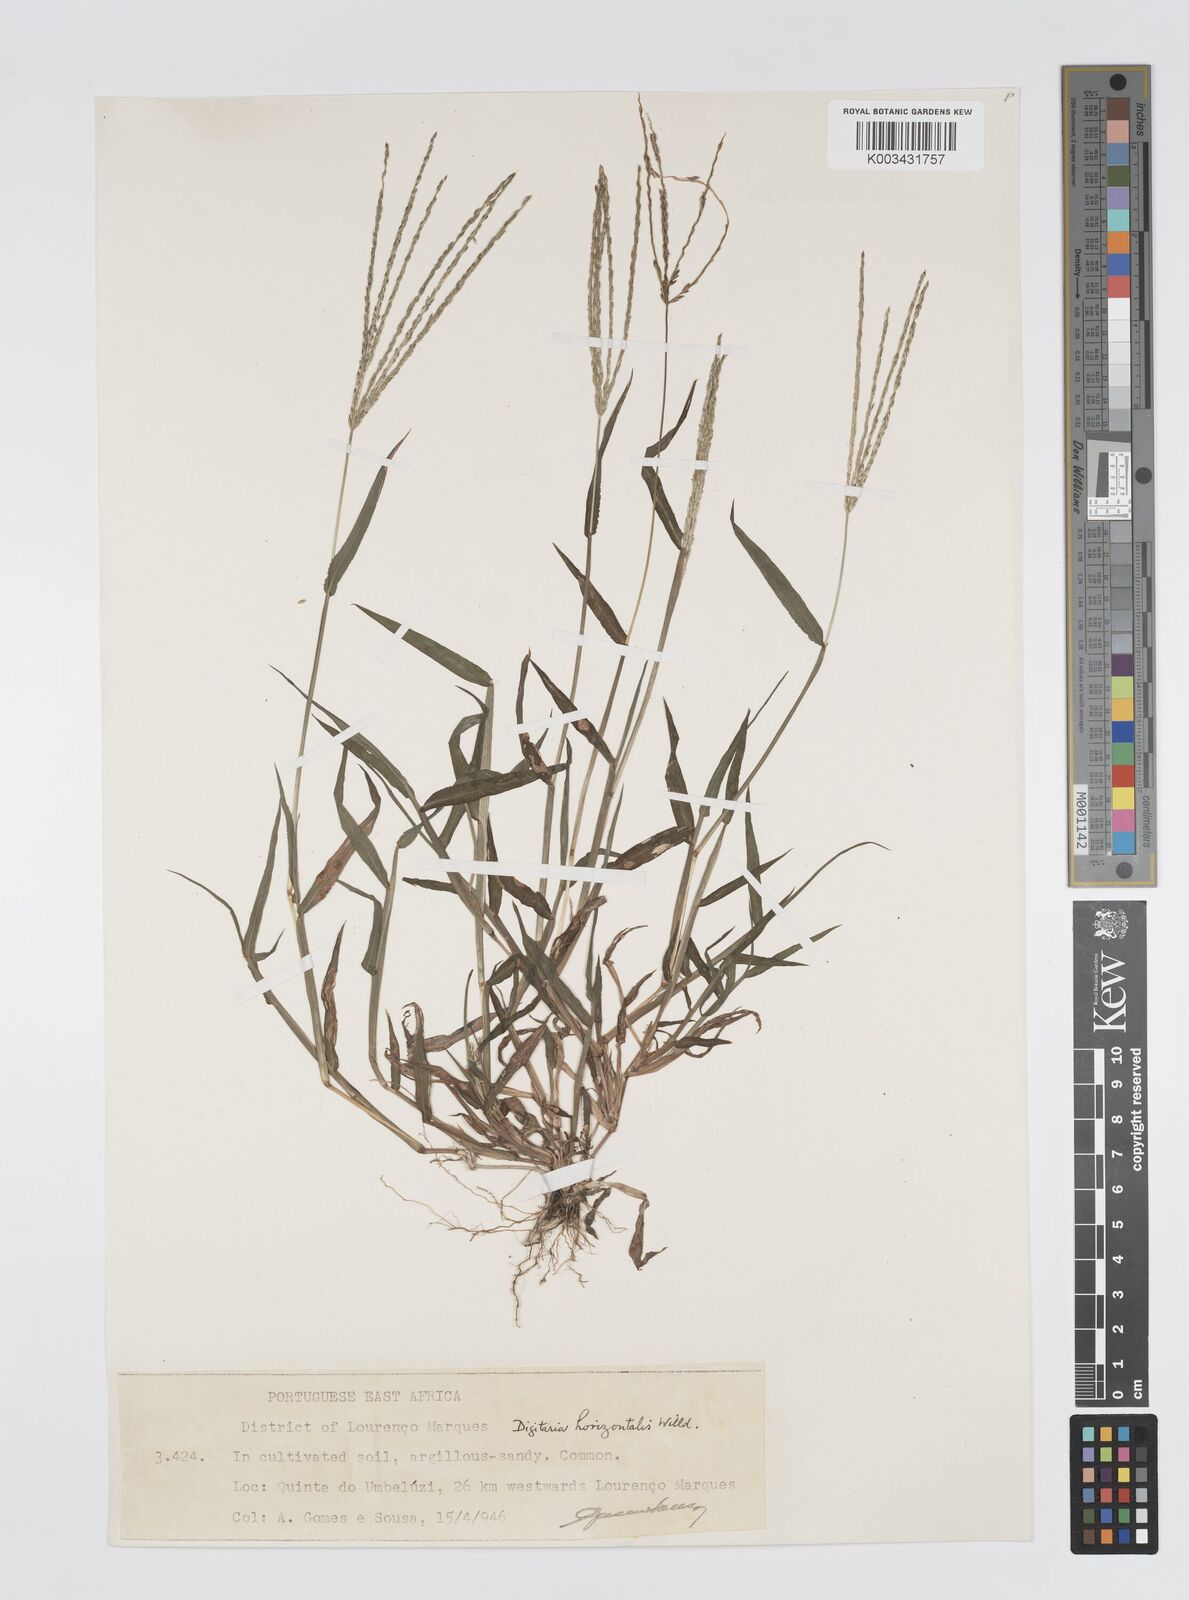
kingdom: Plantae
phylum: Tracheophyta
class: Liliopsida
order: Poales
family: Poaceae
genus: Digitaria
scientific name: Digitaria nuda
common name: Naked crabgrass
